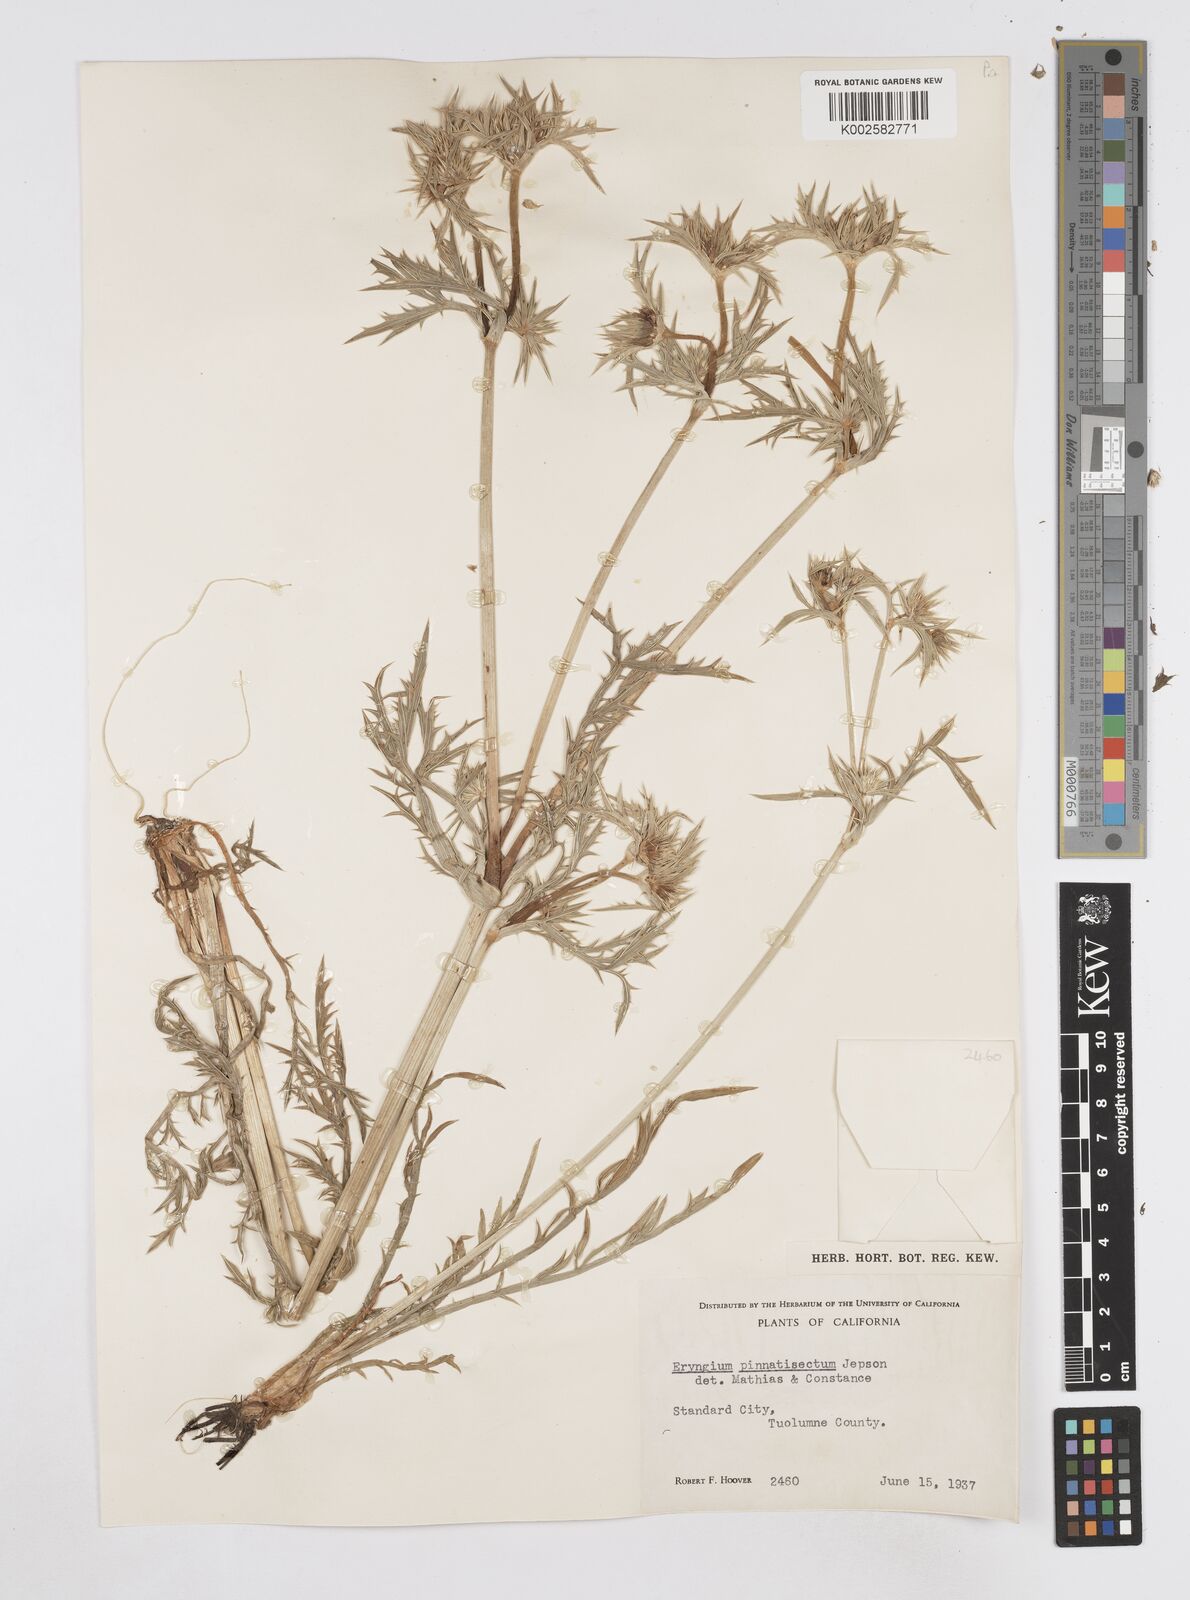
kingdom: Plantae
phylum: Tracheophyta
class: Magnoliopsida
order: Apiales
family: Apiaceae
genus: Eryngium
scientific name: Eryngium pinnatisectum
